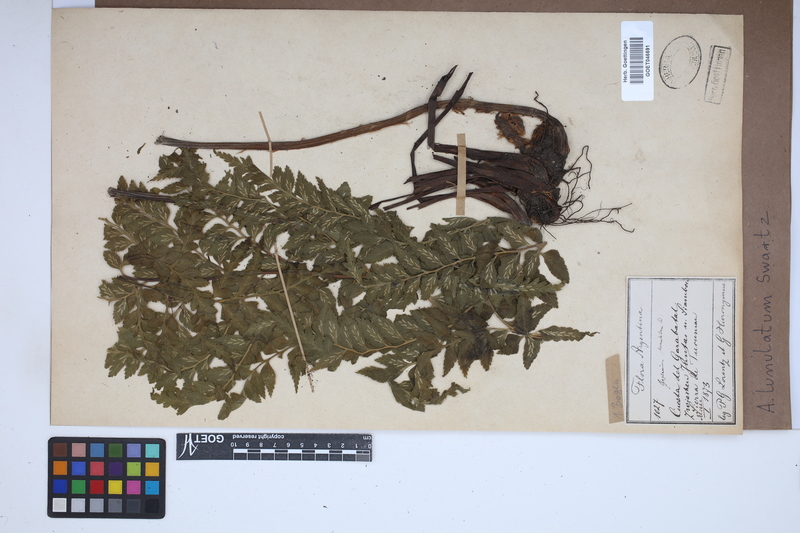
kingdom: Plantae
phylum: Tracheophyta
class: Polypodiopsida
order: Polypodiales
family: Aspleniaceae
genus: Asplenium
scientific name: Asplenium lunulatum
